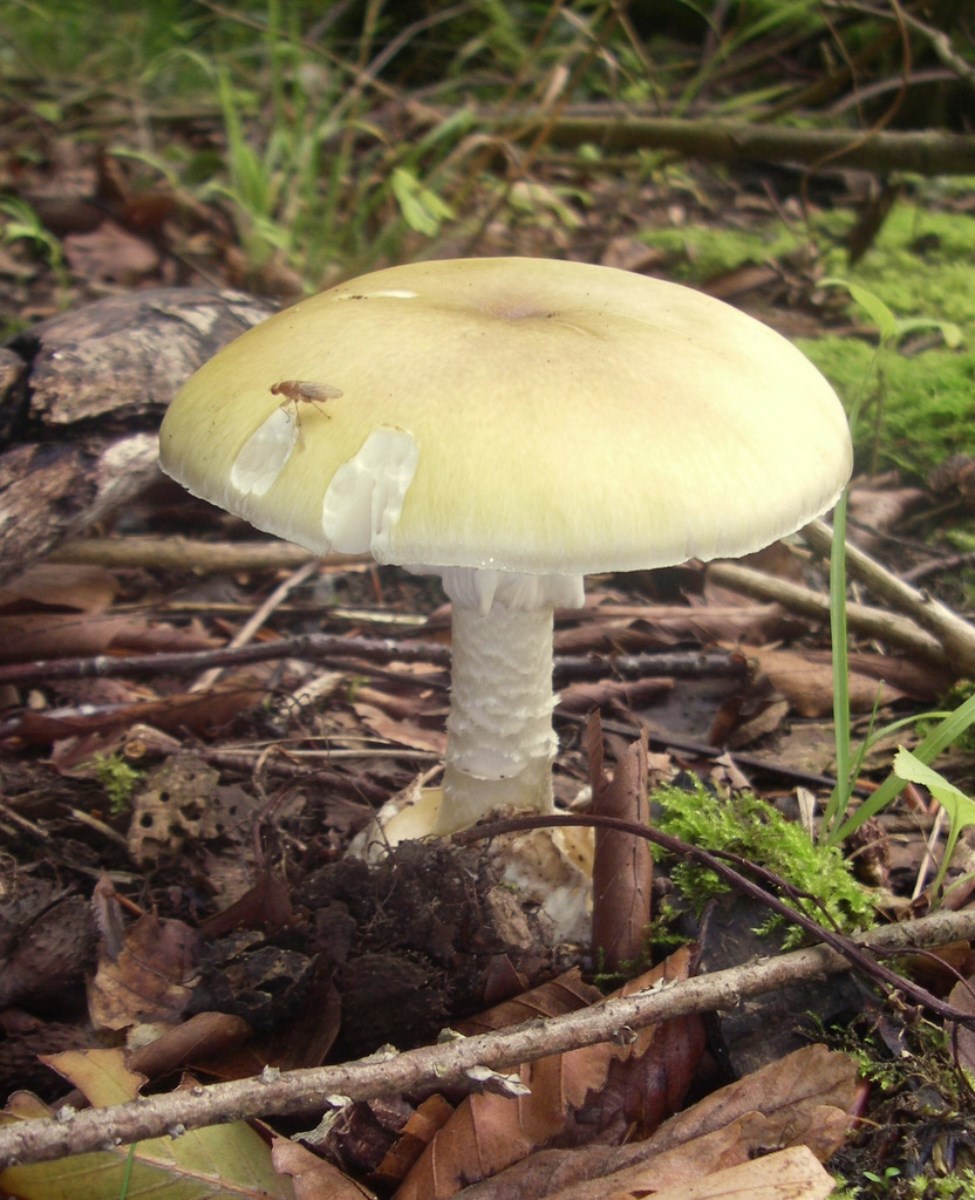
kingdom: Fungi
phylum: Basidiomycota
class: Agaricomycetes
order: Agaricales
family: Amanitaceae
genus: Amanita
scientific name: Amanita phalloides
